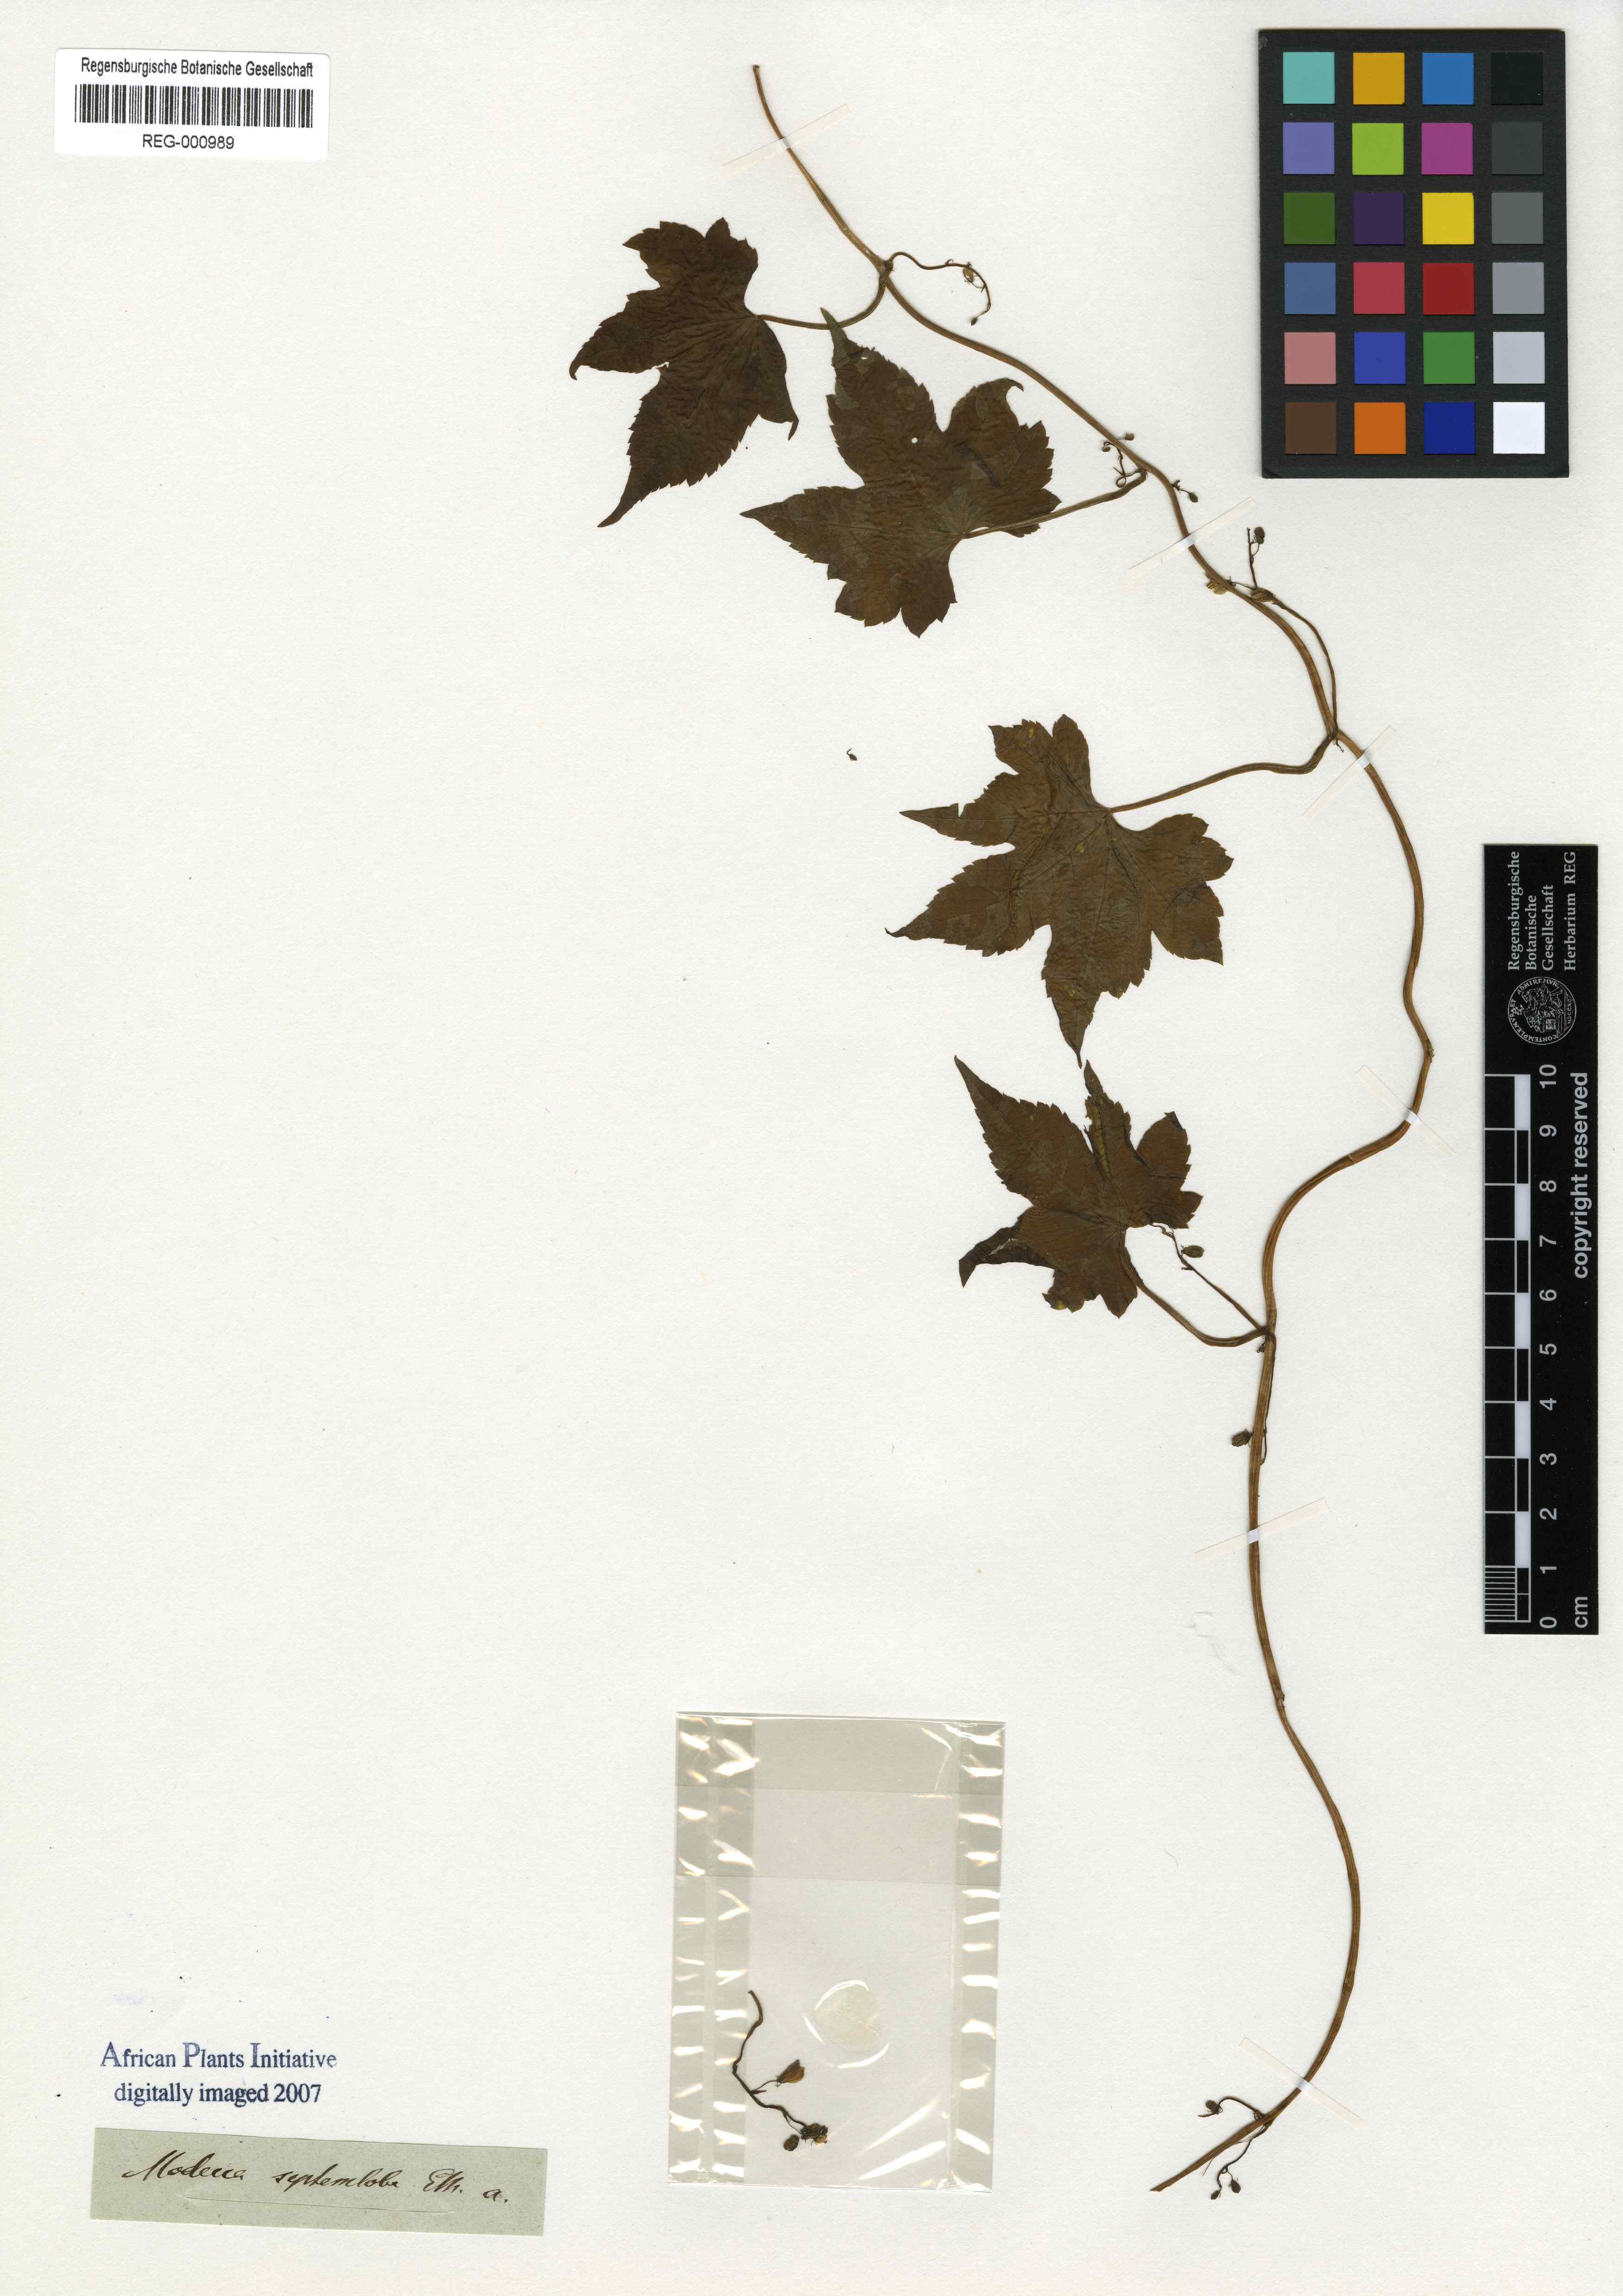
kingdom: Plantae
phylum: Tracheophyta
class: Magnoliopsida
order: Malpighiales
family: Achariaceae
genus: Ceratiosicyos
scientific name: Ceratiosicyos laevis
